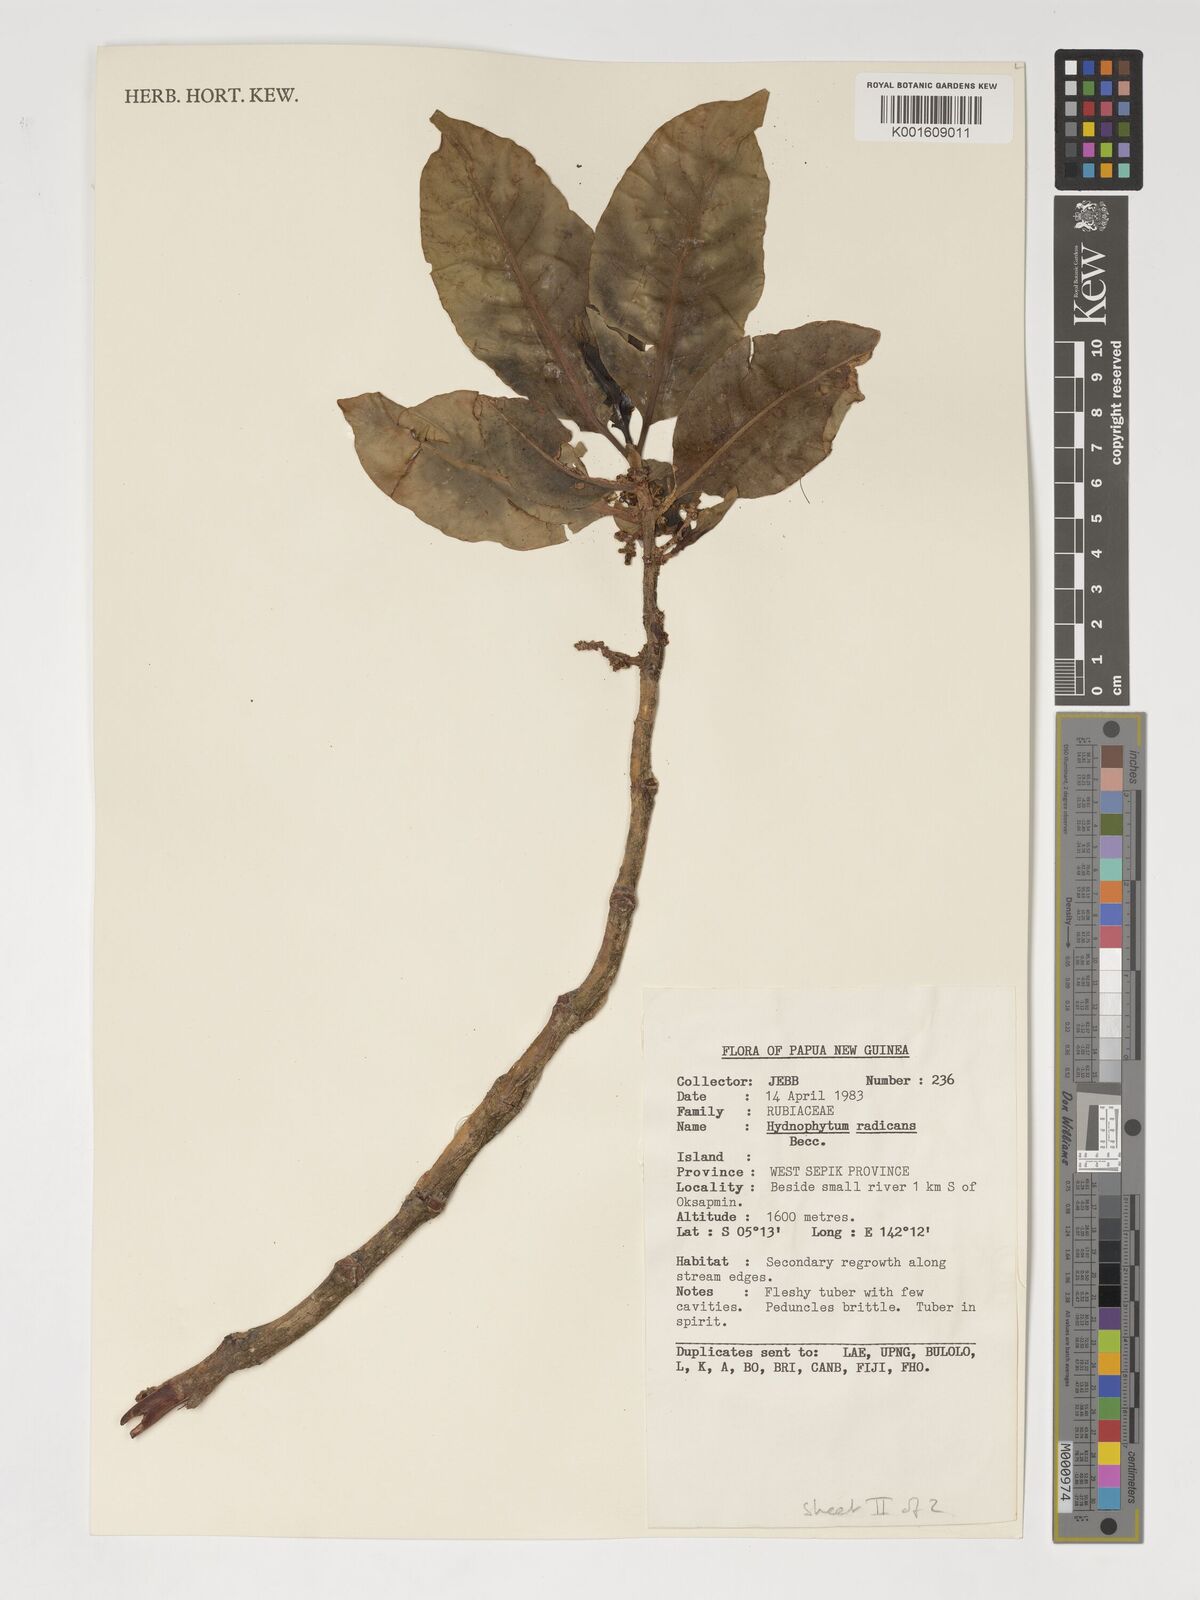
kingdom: Plantae
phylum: Tracheophyta
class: Magnoliopsida
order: Gentianales
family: Rubiaceae
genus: Hydnophytum
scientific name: Hydnophytum radicans
